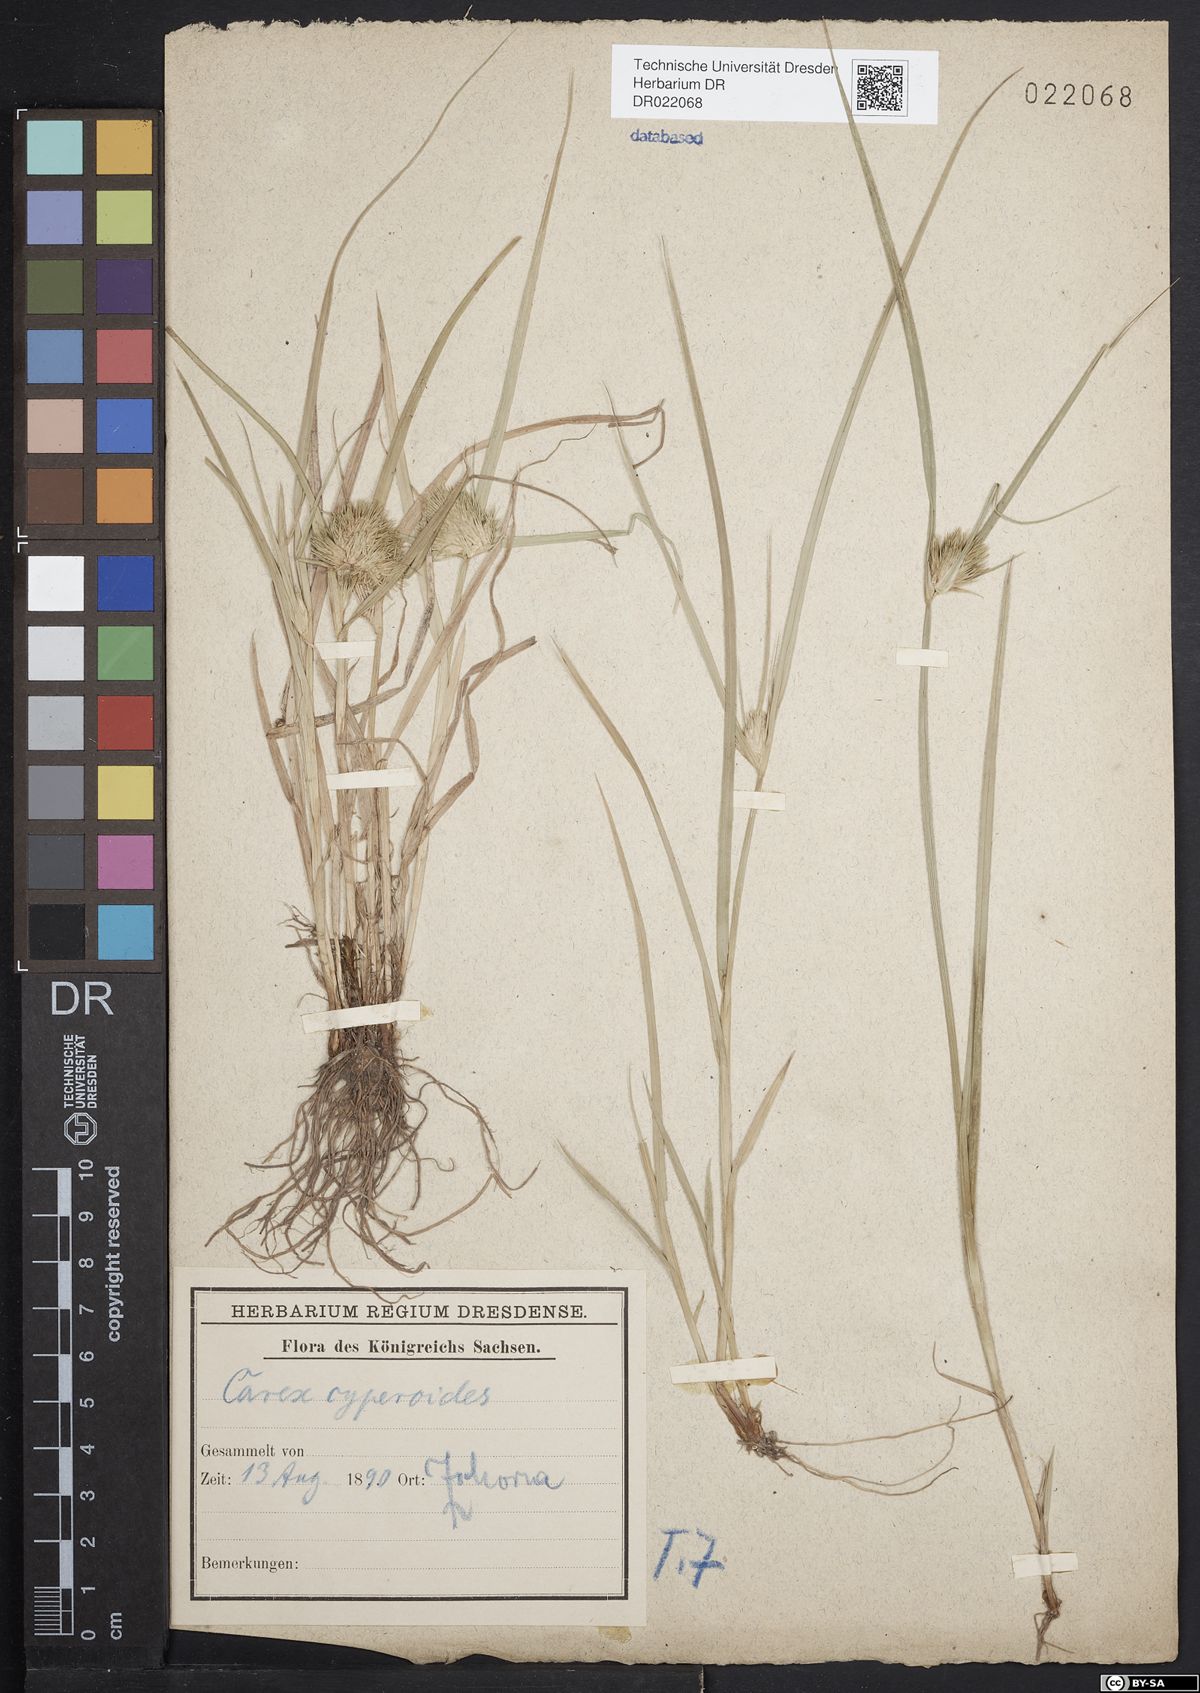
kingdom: Plantae
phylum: Tracheophyta
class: Liliopsida
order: Poales
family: Cyperaceae
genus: Carex
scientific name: Carex bohemica
